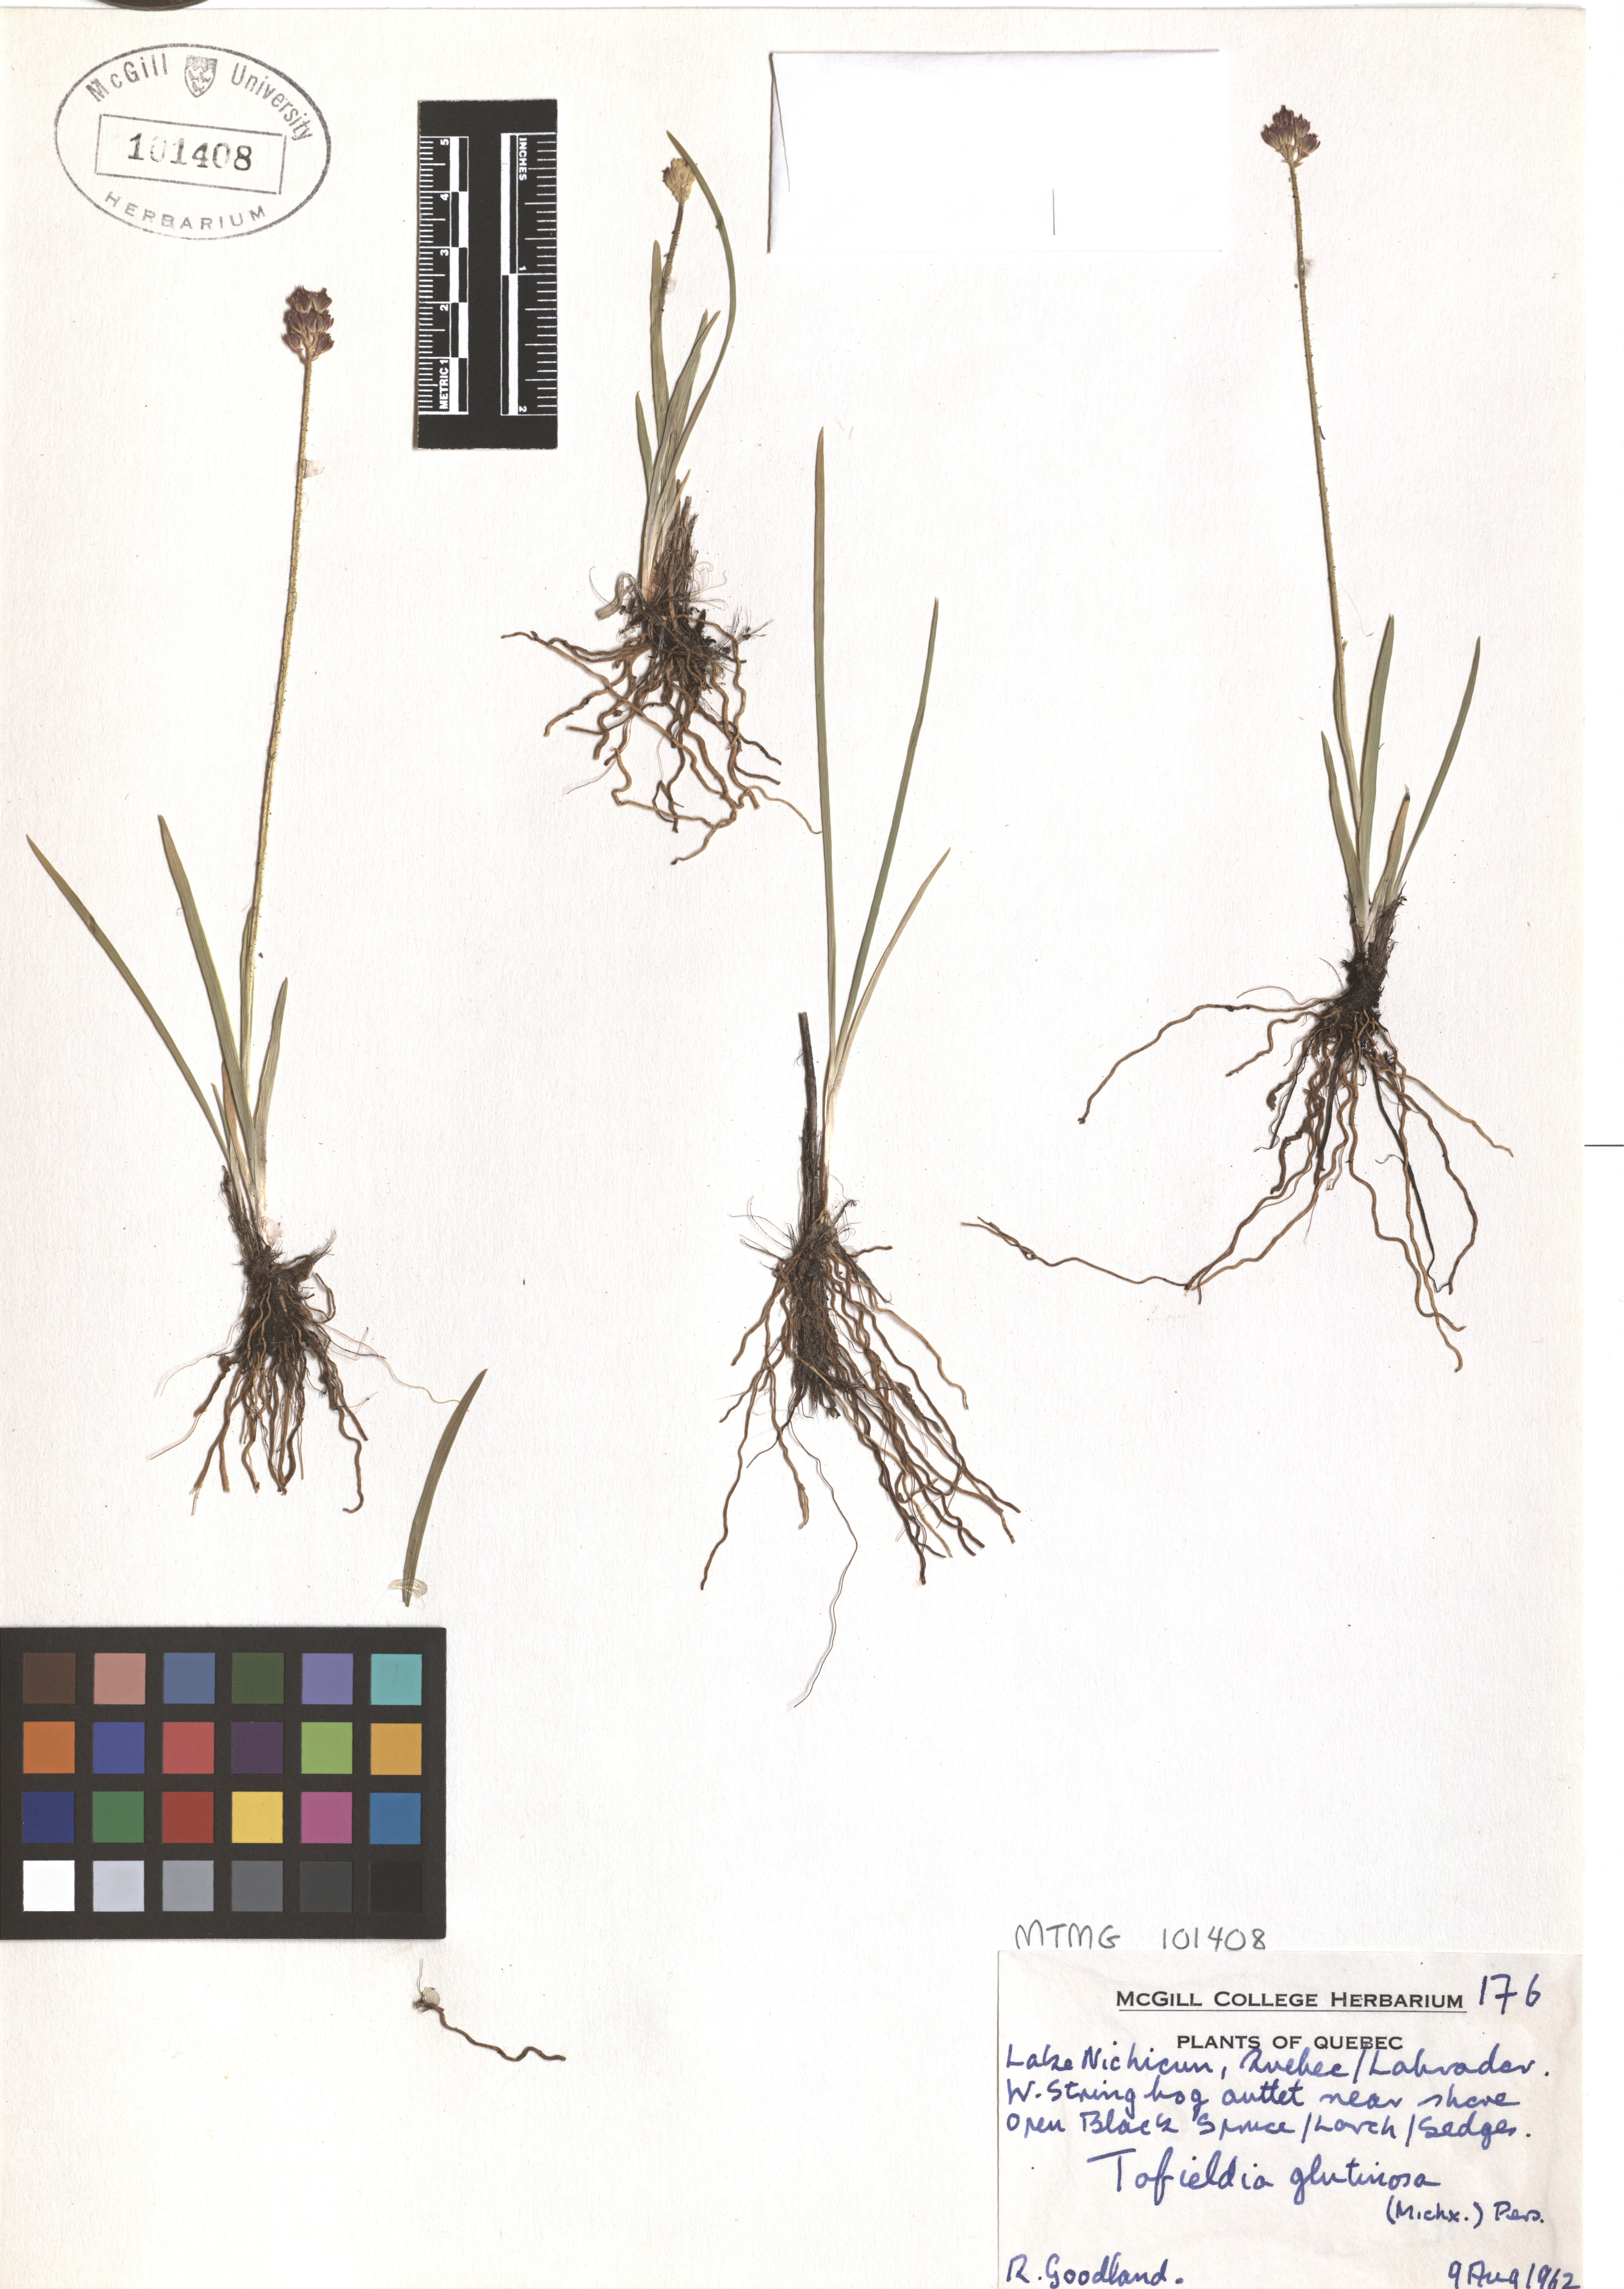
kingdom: Plantae
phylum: Tracheophyta
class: Liliopsida
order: Alismatales
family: Tofieldiaceae
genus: Triantha
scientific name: Triantha glutinosa
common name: Glutinous tofieldia
